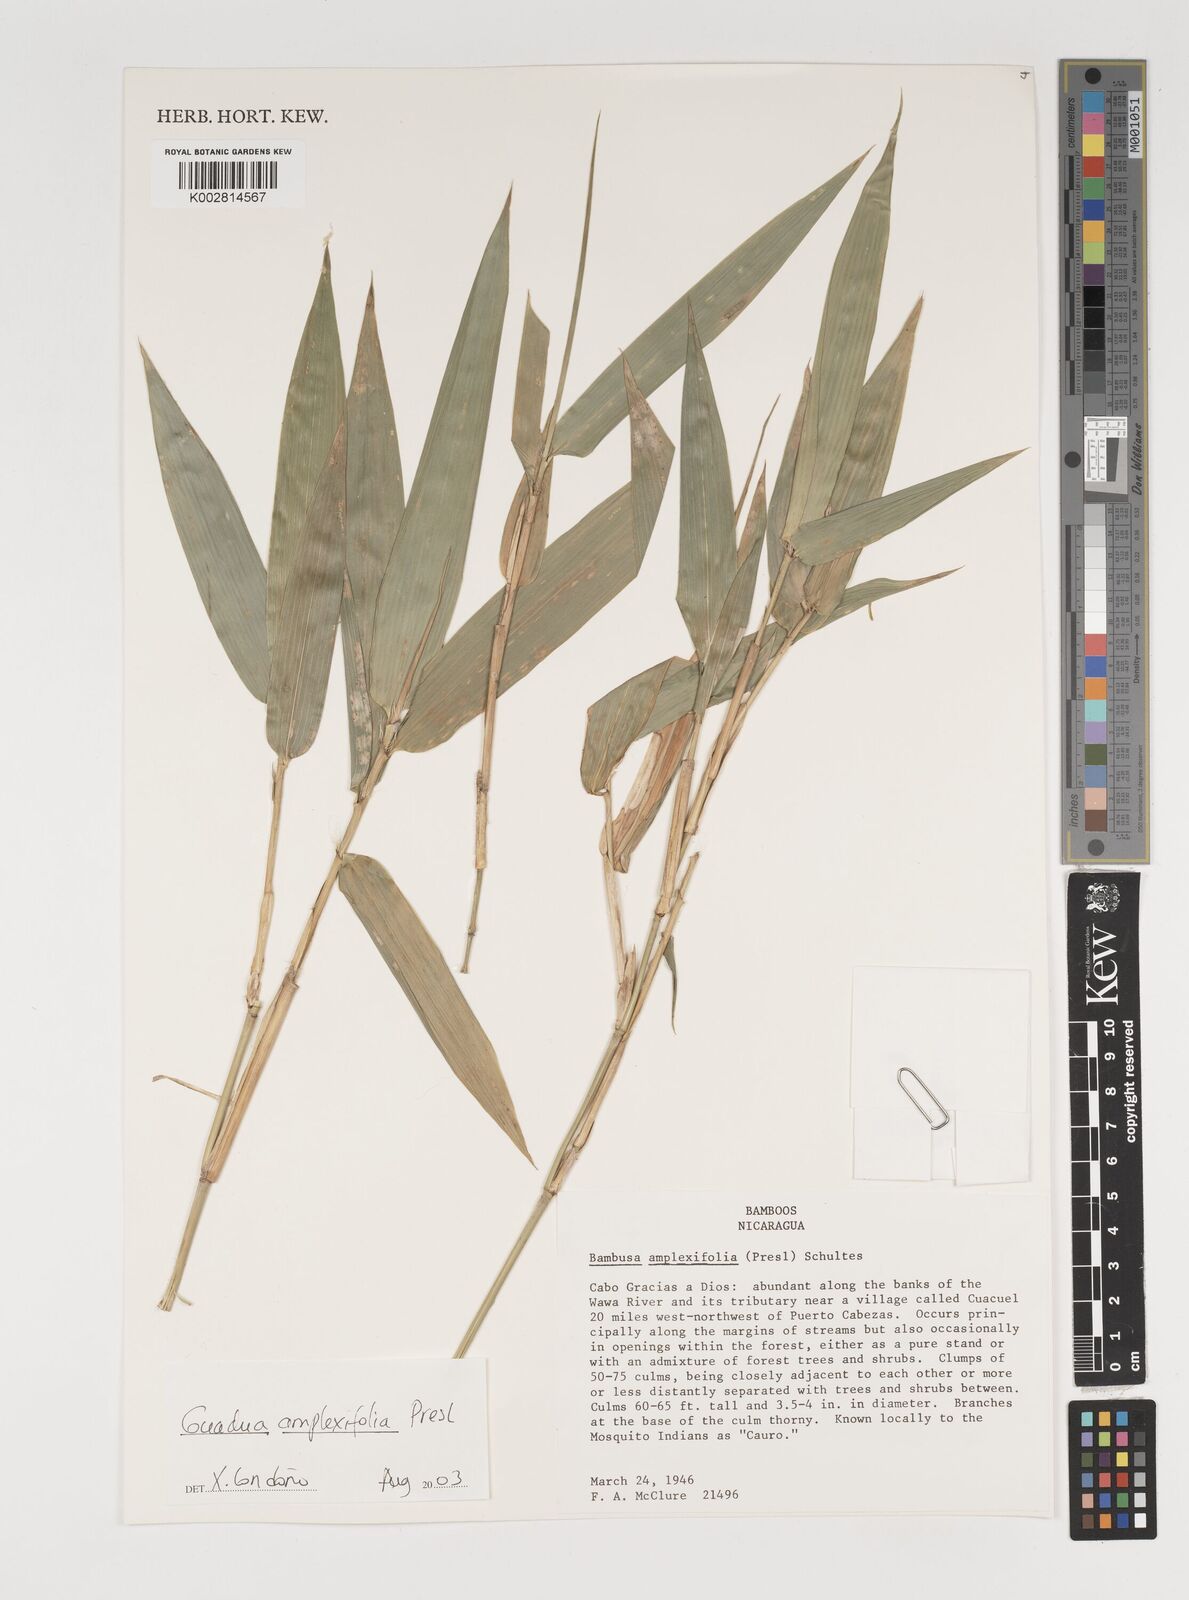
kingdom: Plantae
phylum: Tracheophyta
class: Liliopsida
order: Poales
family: Poaceae
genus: Guadua
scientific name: Guadua amplexifolia
